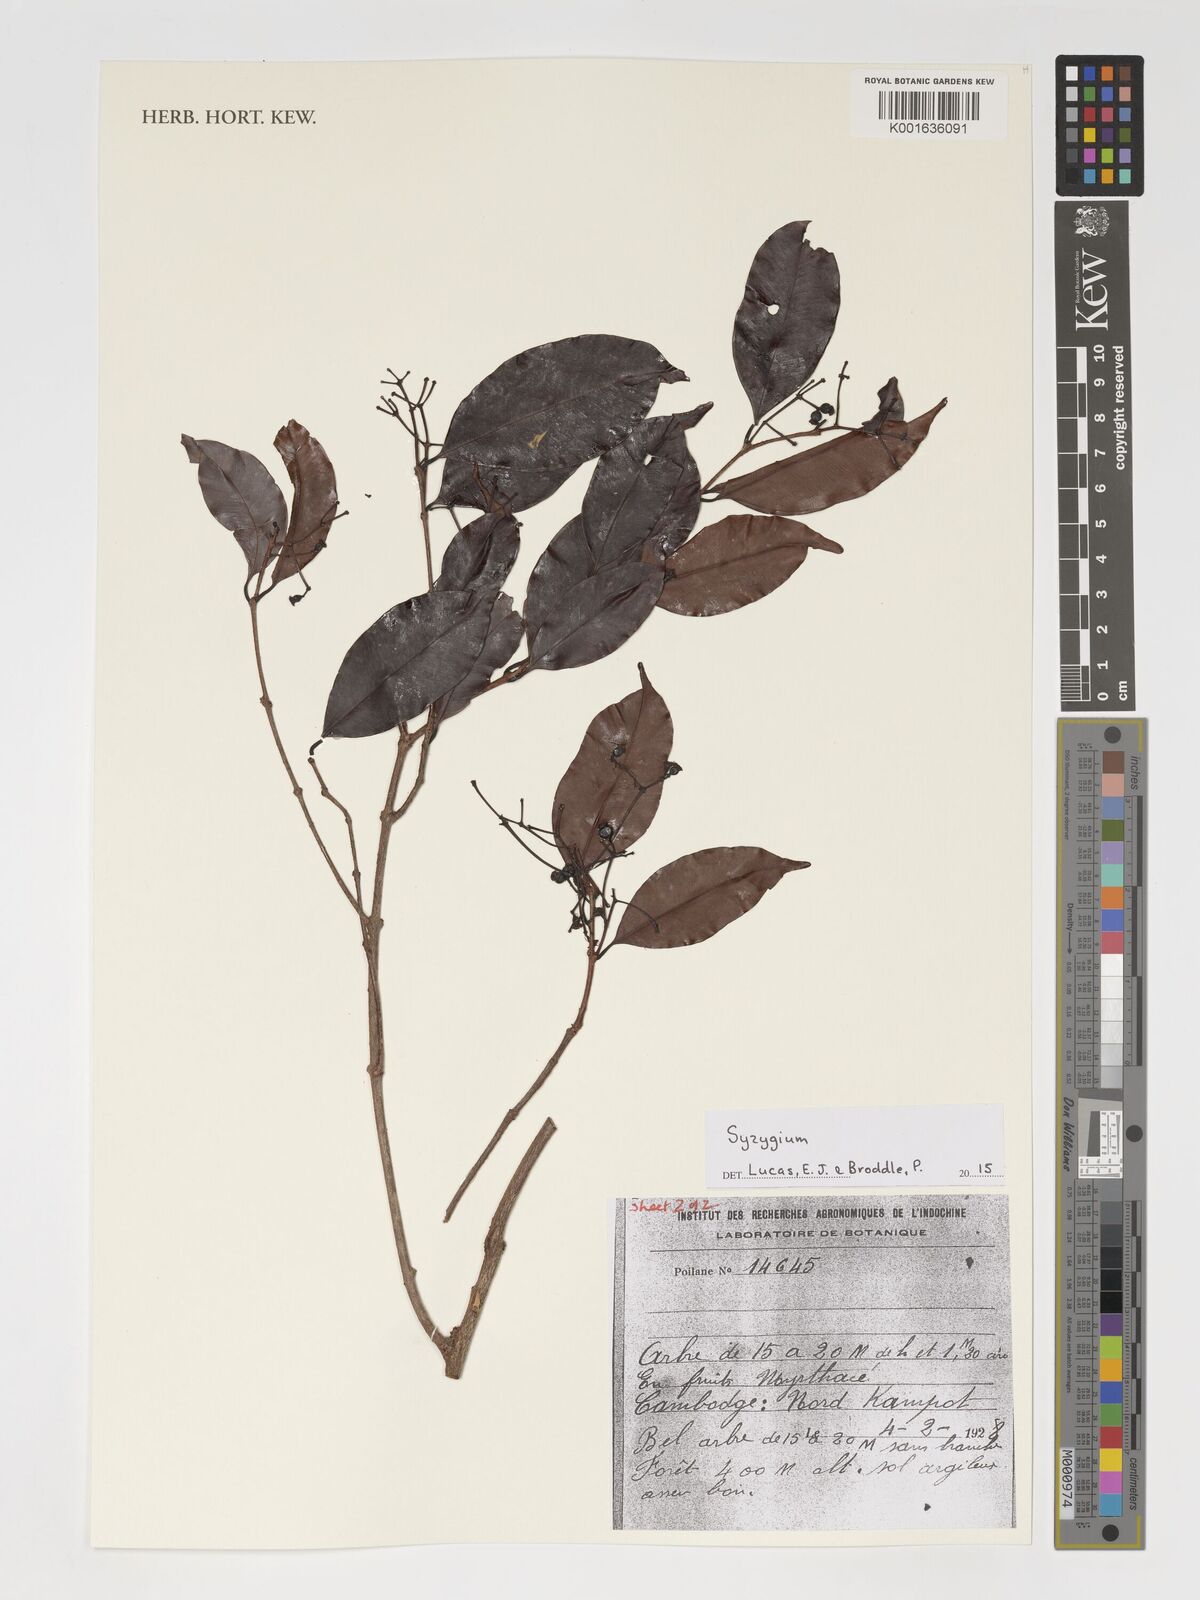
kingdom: Plantae
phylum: Tracheophyta
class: Magnoliopsida
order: Myrtales
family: Myrtaceae
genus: Syzygium
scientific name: Syzygium
